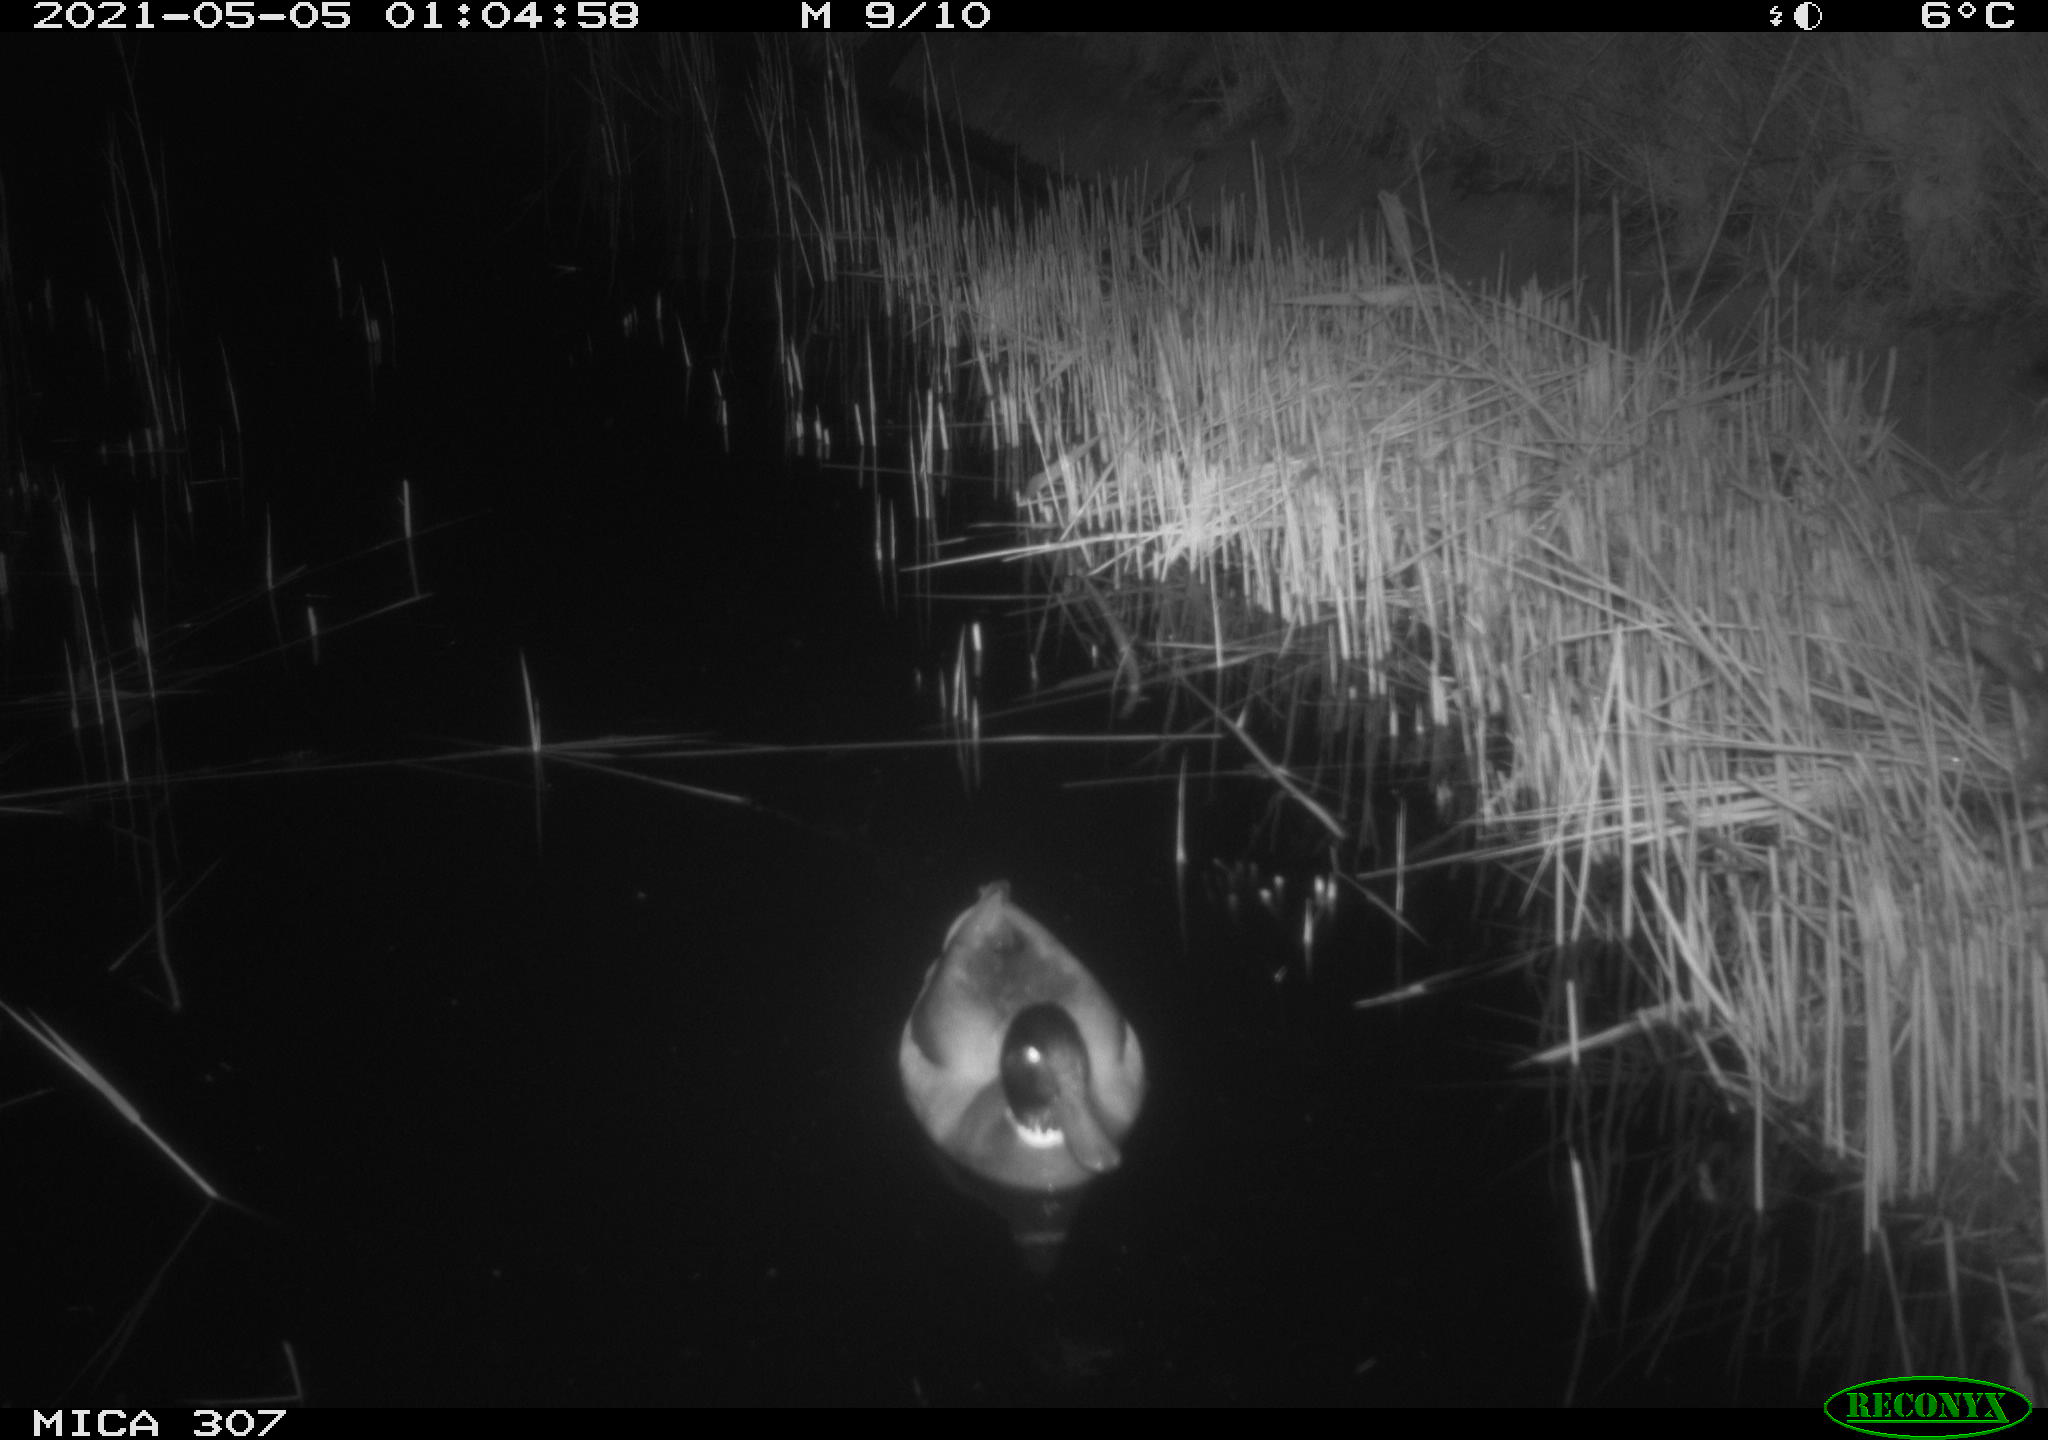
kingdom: Animalia
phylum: Chordata
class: Aves
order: Anseriformes
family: Anatidae
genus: Anas
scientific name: Anas platyrhynchos
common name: Mallard
